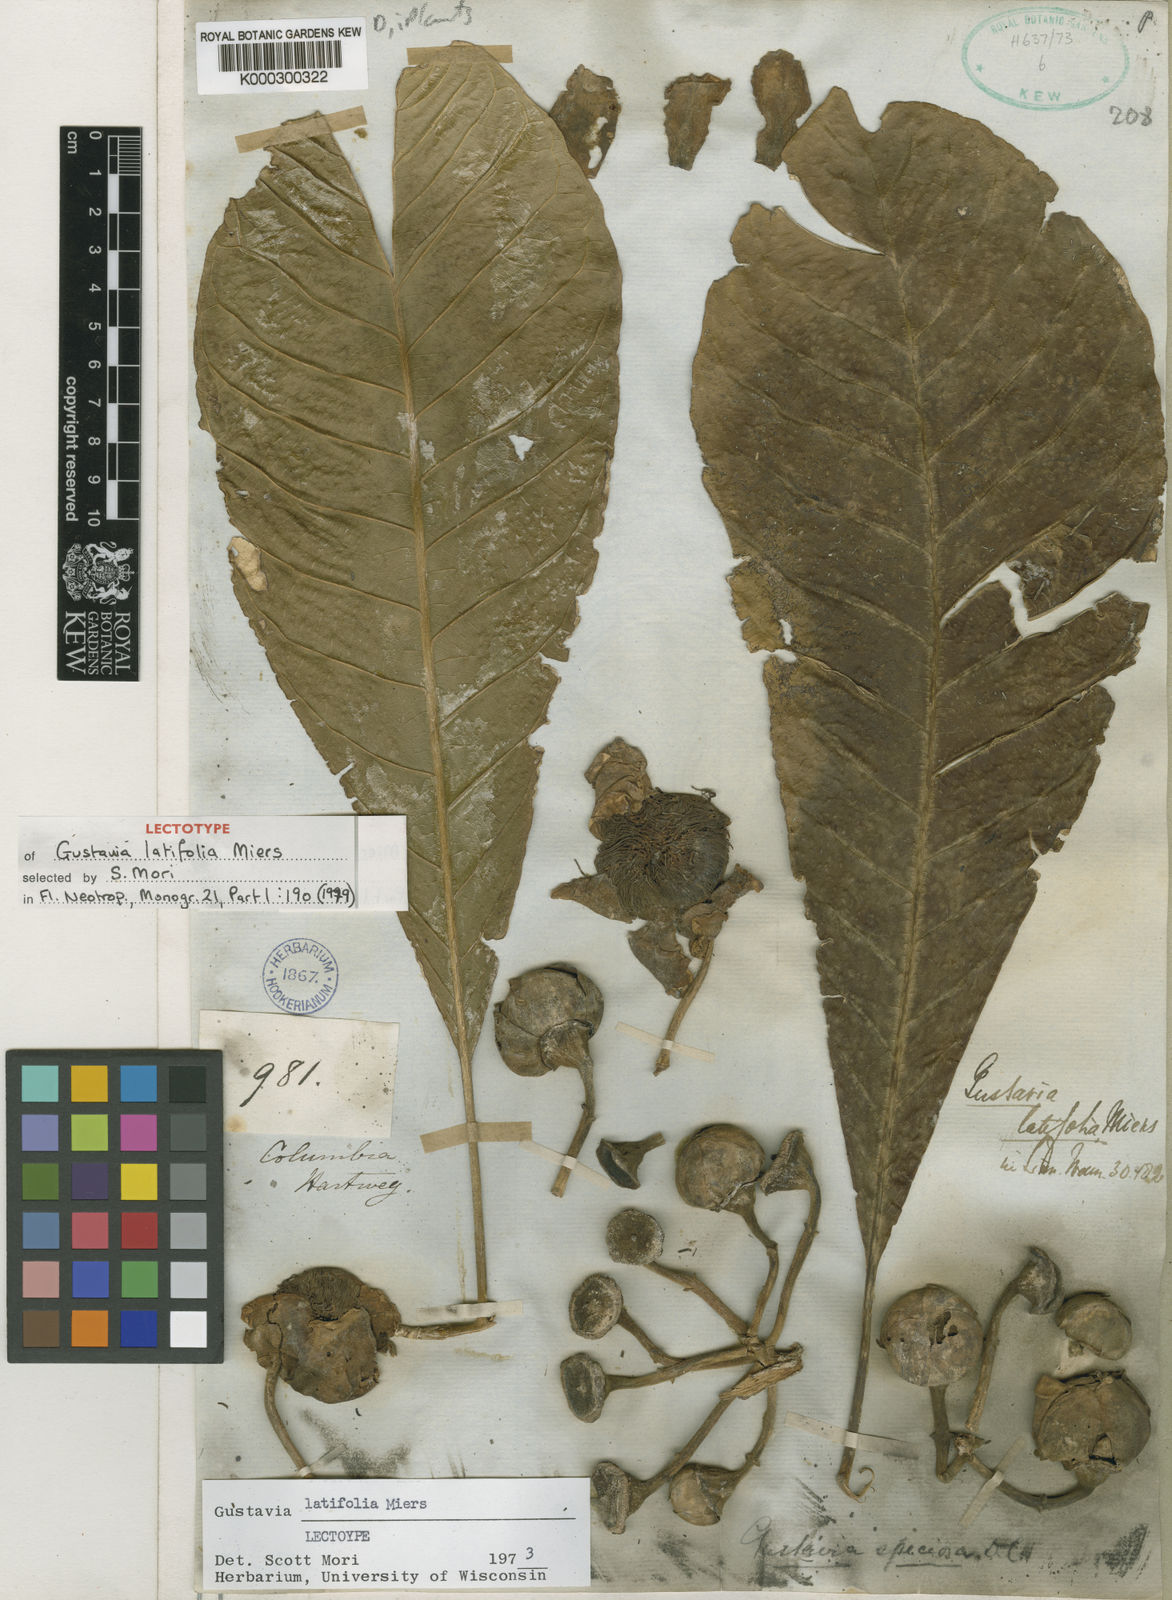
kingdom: Plantae
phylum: Tracheophyta
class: Magnoliopsida
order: Ericales
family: Lecythidaceae
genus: Gustavia
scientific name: Gustavia latifolia
